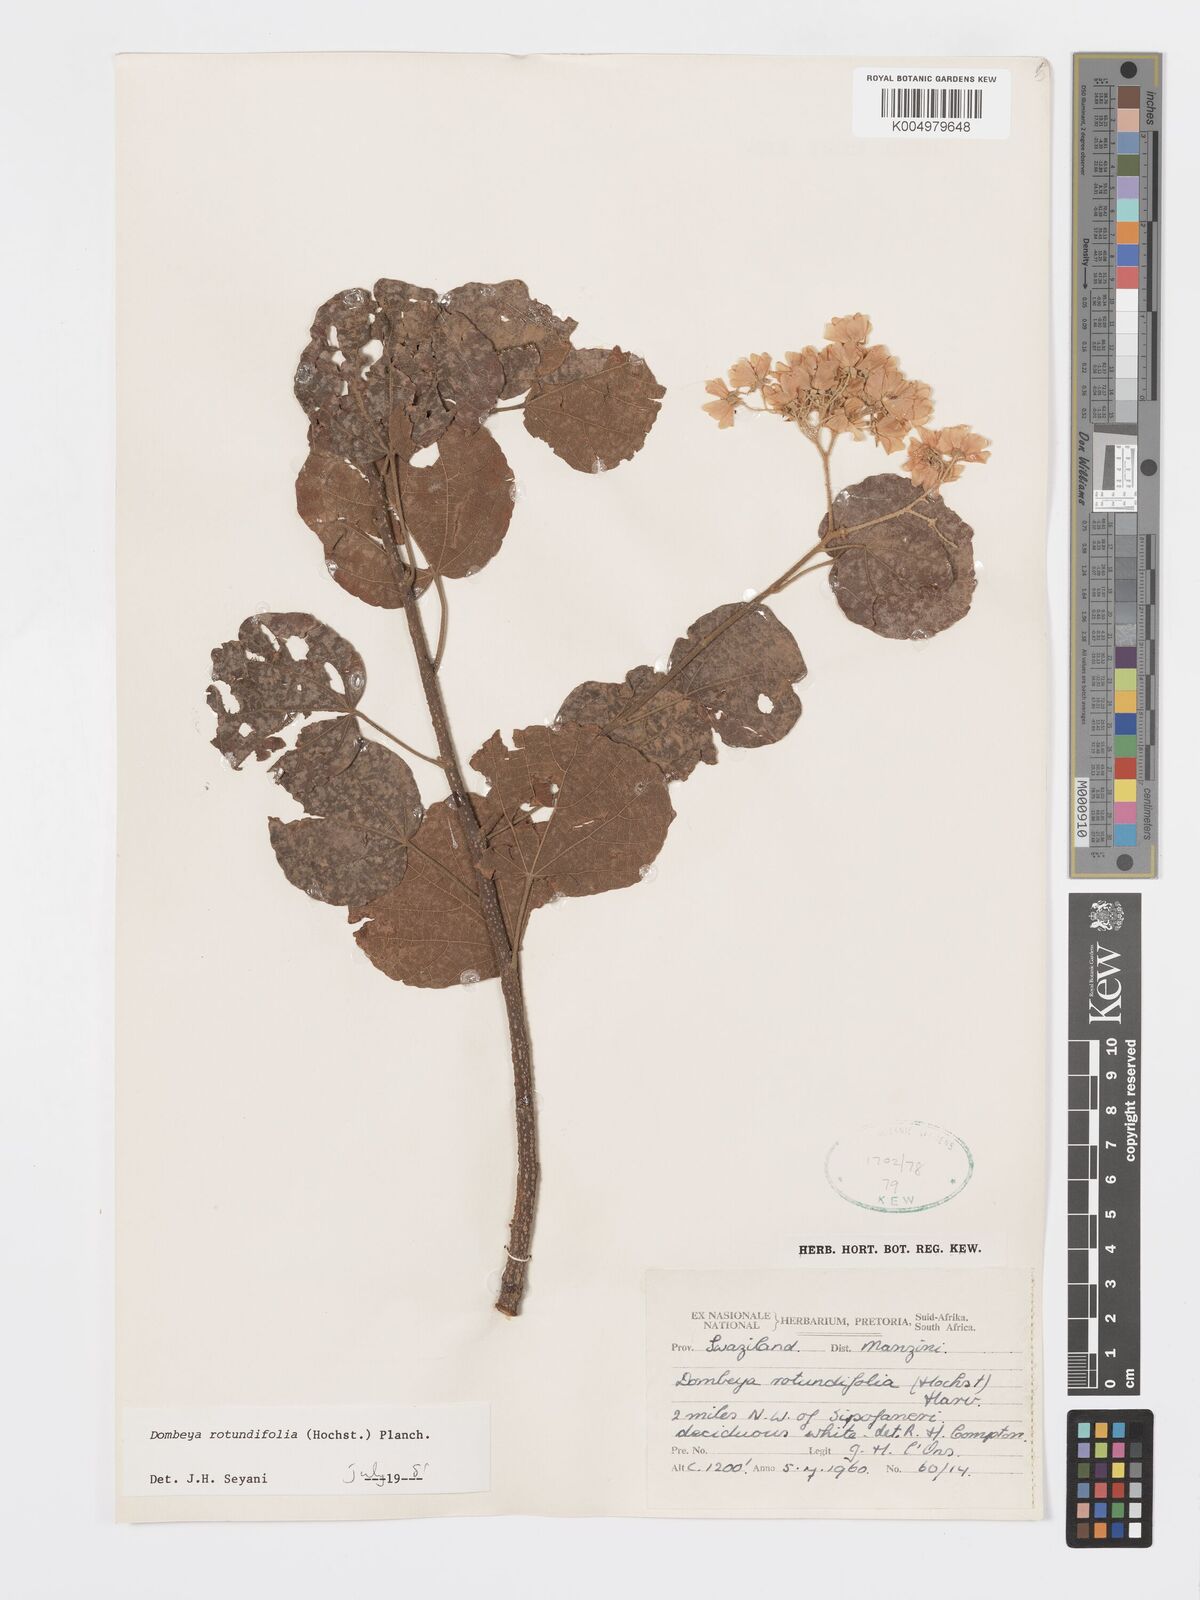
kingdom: Plantae
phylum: Tracheophyta
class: Magnoliopsida
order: Malvales
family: Malvaceae
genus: Dombeya
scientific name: Dombeya rotundifolia
